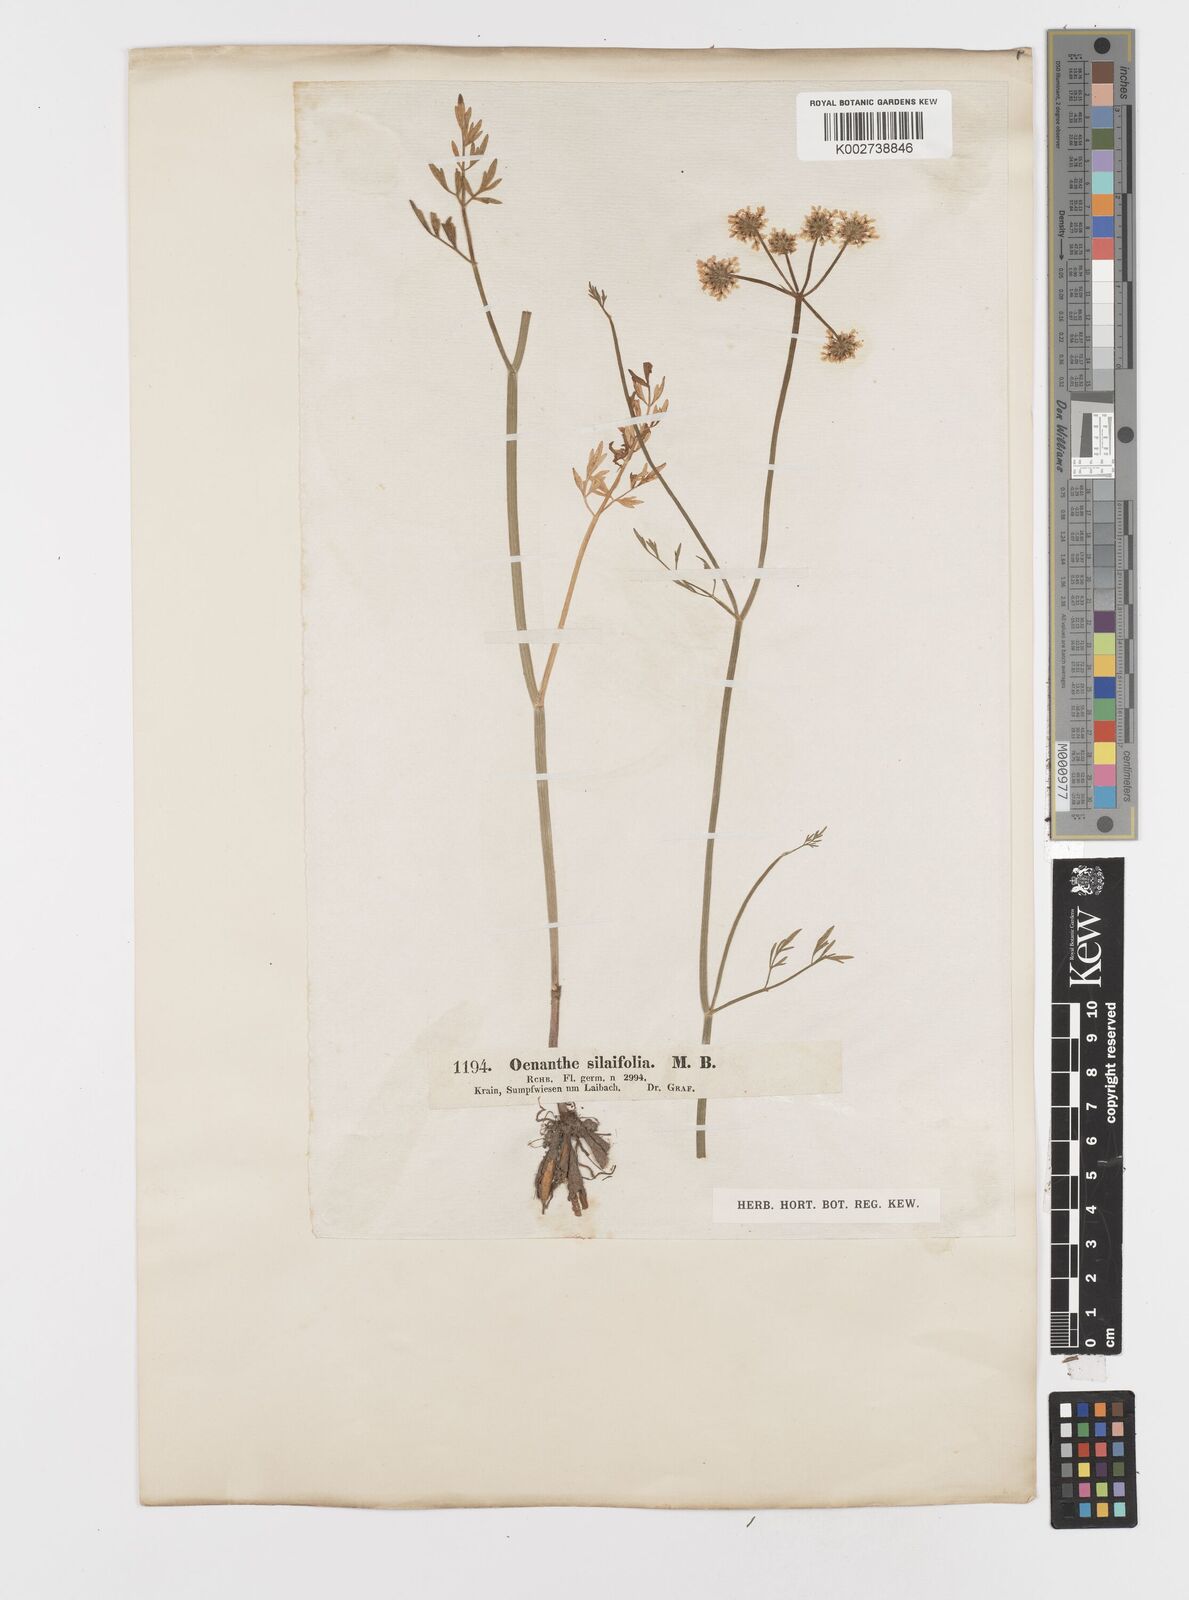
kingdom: Plantae
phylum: Tracheophyta
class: Magnoliopsida
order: Apiales
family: Apiaceae
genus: Oenanthe
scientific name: Oenanthe silaifolia
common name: Narrow-leaved water-dropwort
